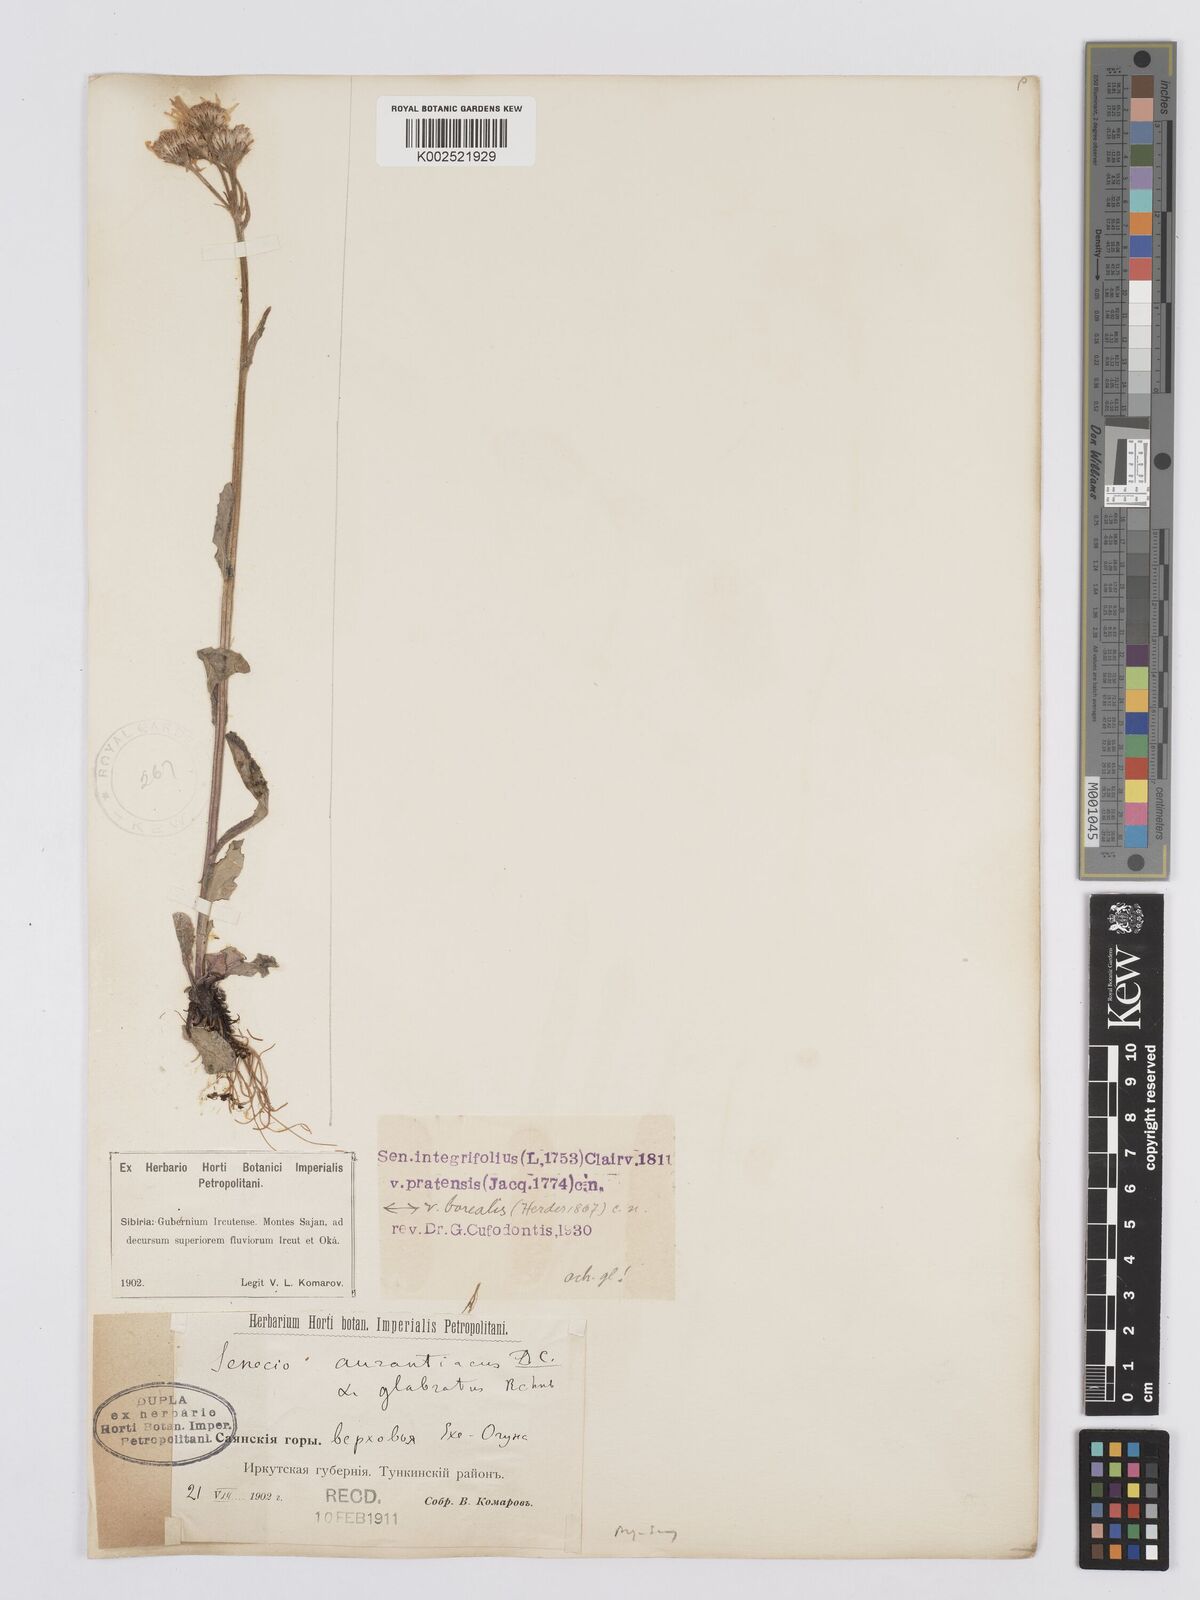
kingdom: Plantae
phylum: Tracheophyta
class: Magnoliopsida
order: Asterales
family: Asteraceae
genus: Tephroseris
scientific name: Tephroseris integrifolia
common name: Field fleawort
